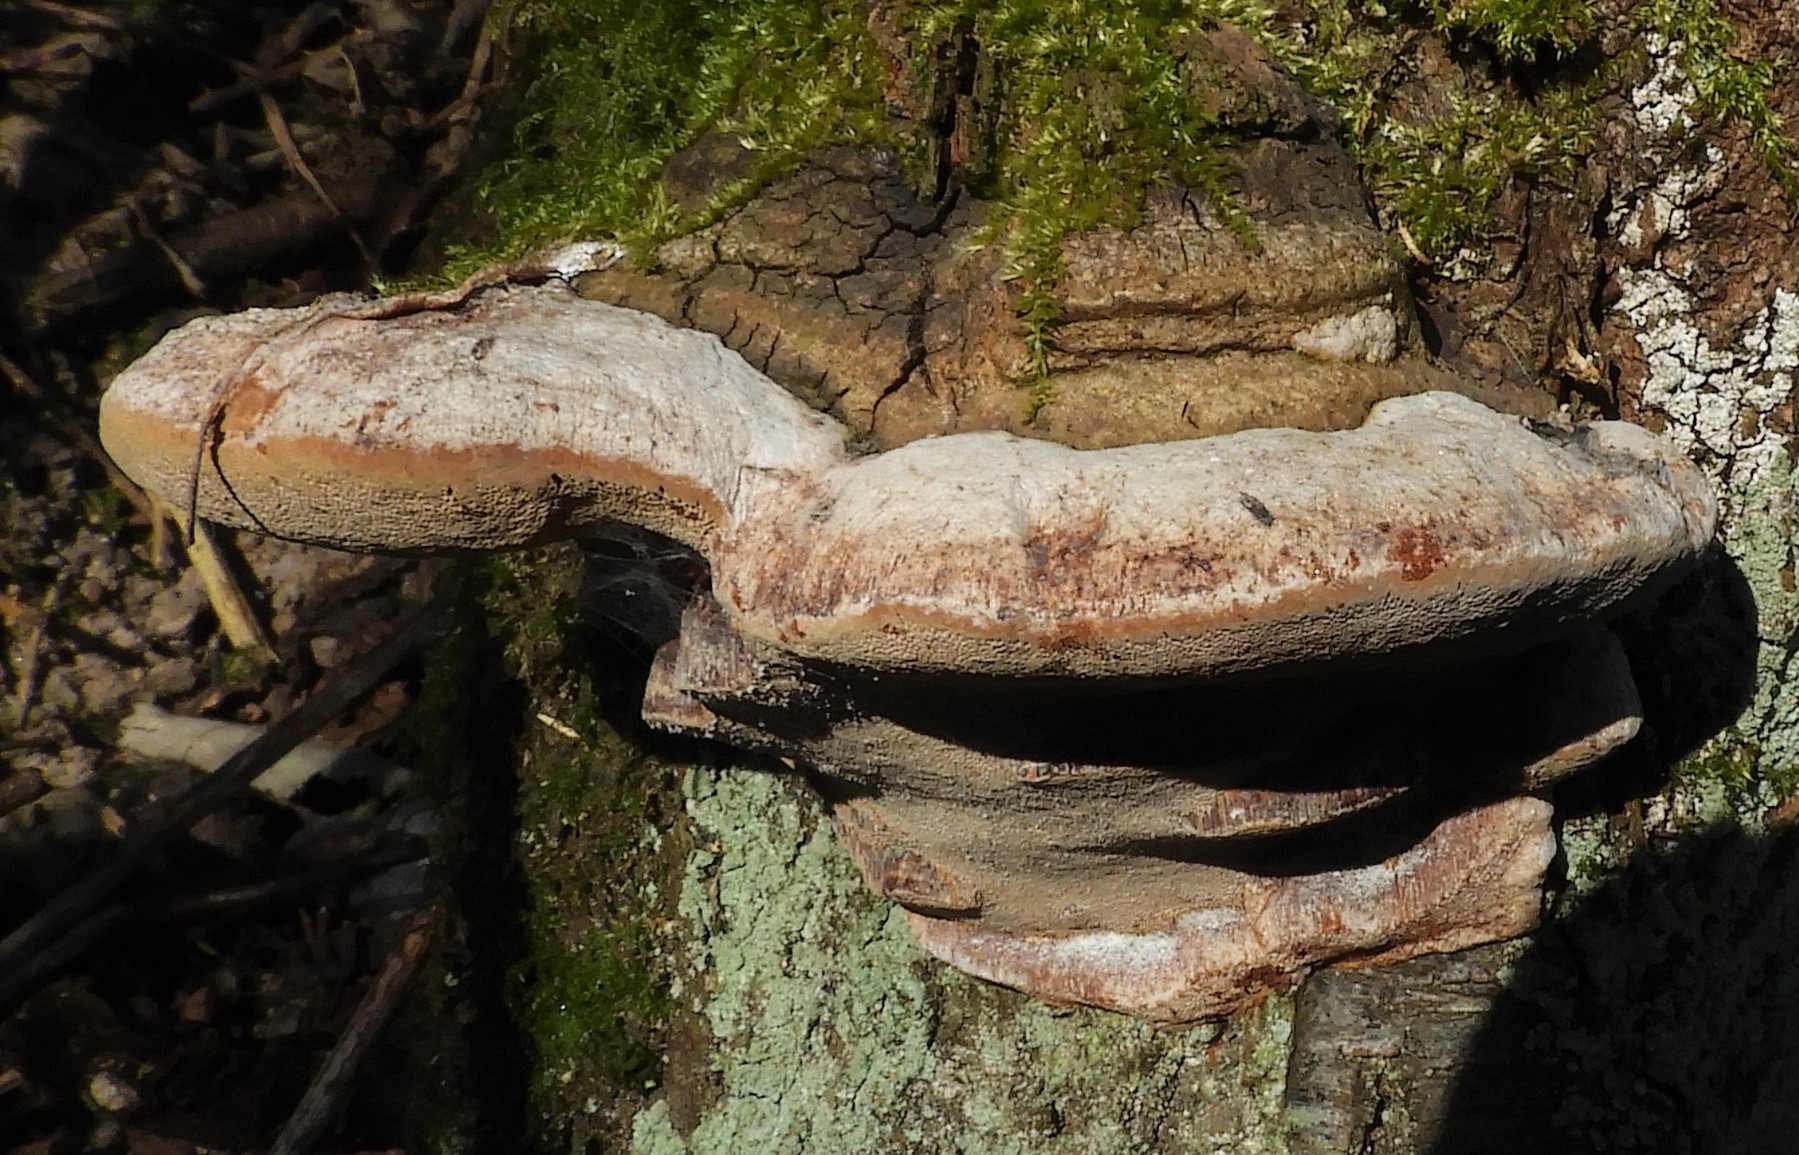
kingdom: Fungi
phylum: Basidiomycota
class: Agaricomycetes
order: Hymenochaetales
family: Hymenochaetaceae
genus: Phellinus
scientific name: Phellinus pomaceus
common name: blomme-ildporesvamp
